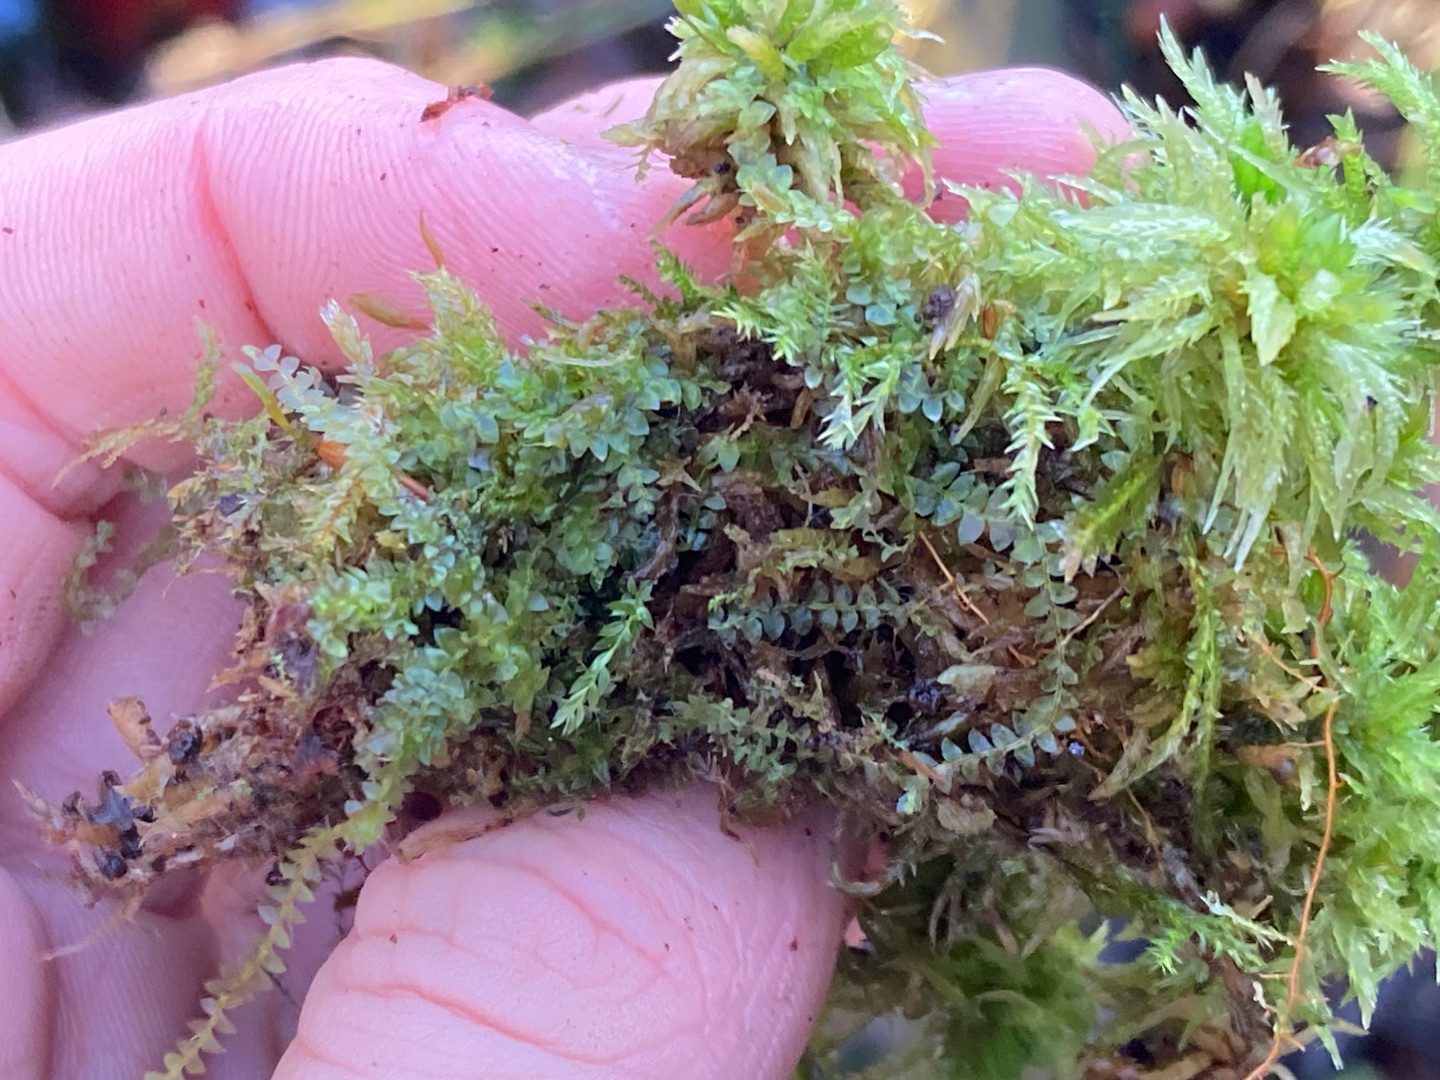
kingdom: Plantae
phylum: Marchantiophyta
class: Jungermanniopsida
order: Jungermanniales
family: Calypogeiaceae
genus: Calypogeia
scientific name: Calypogeia fissa
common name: Tvespidset sækmos
